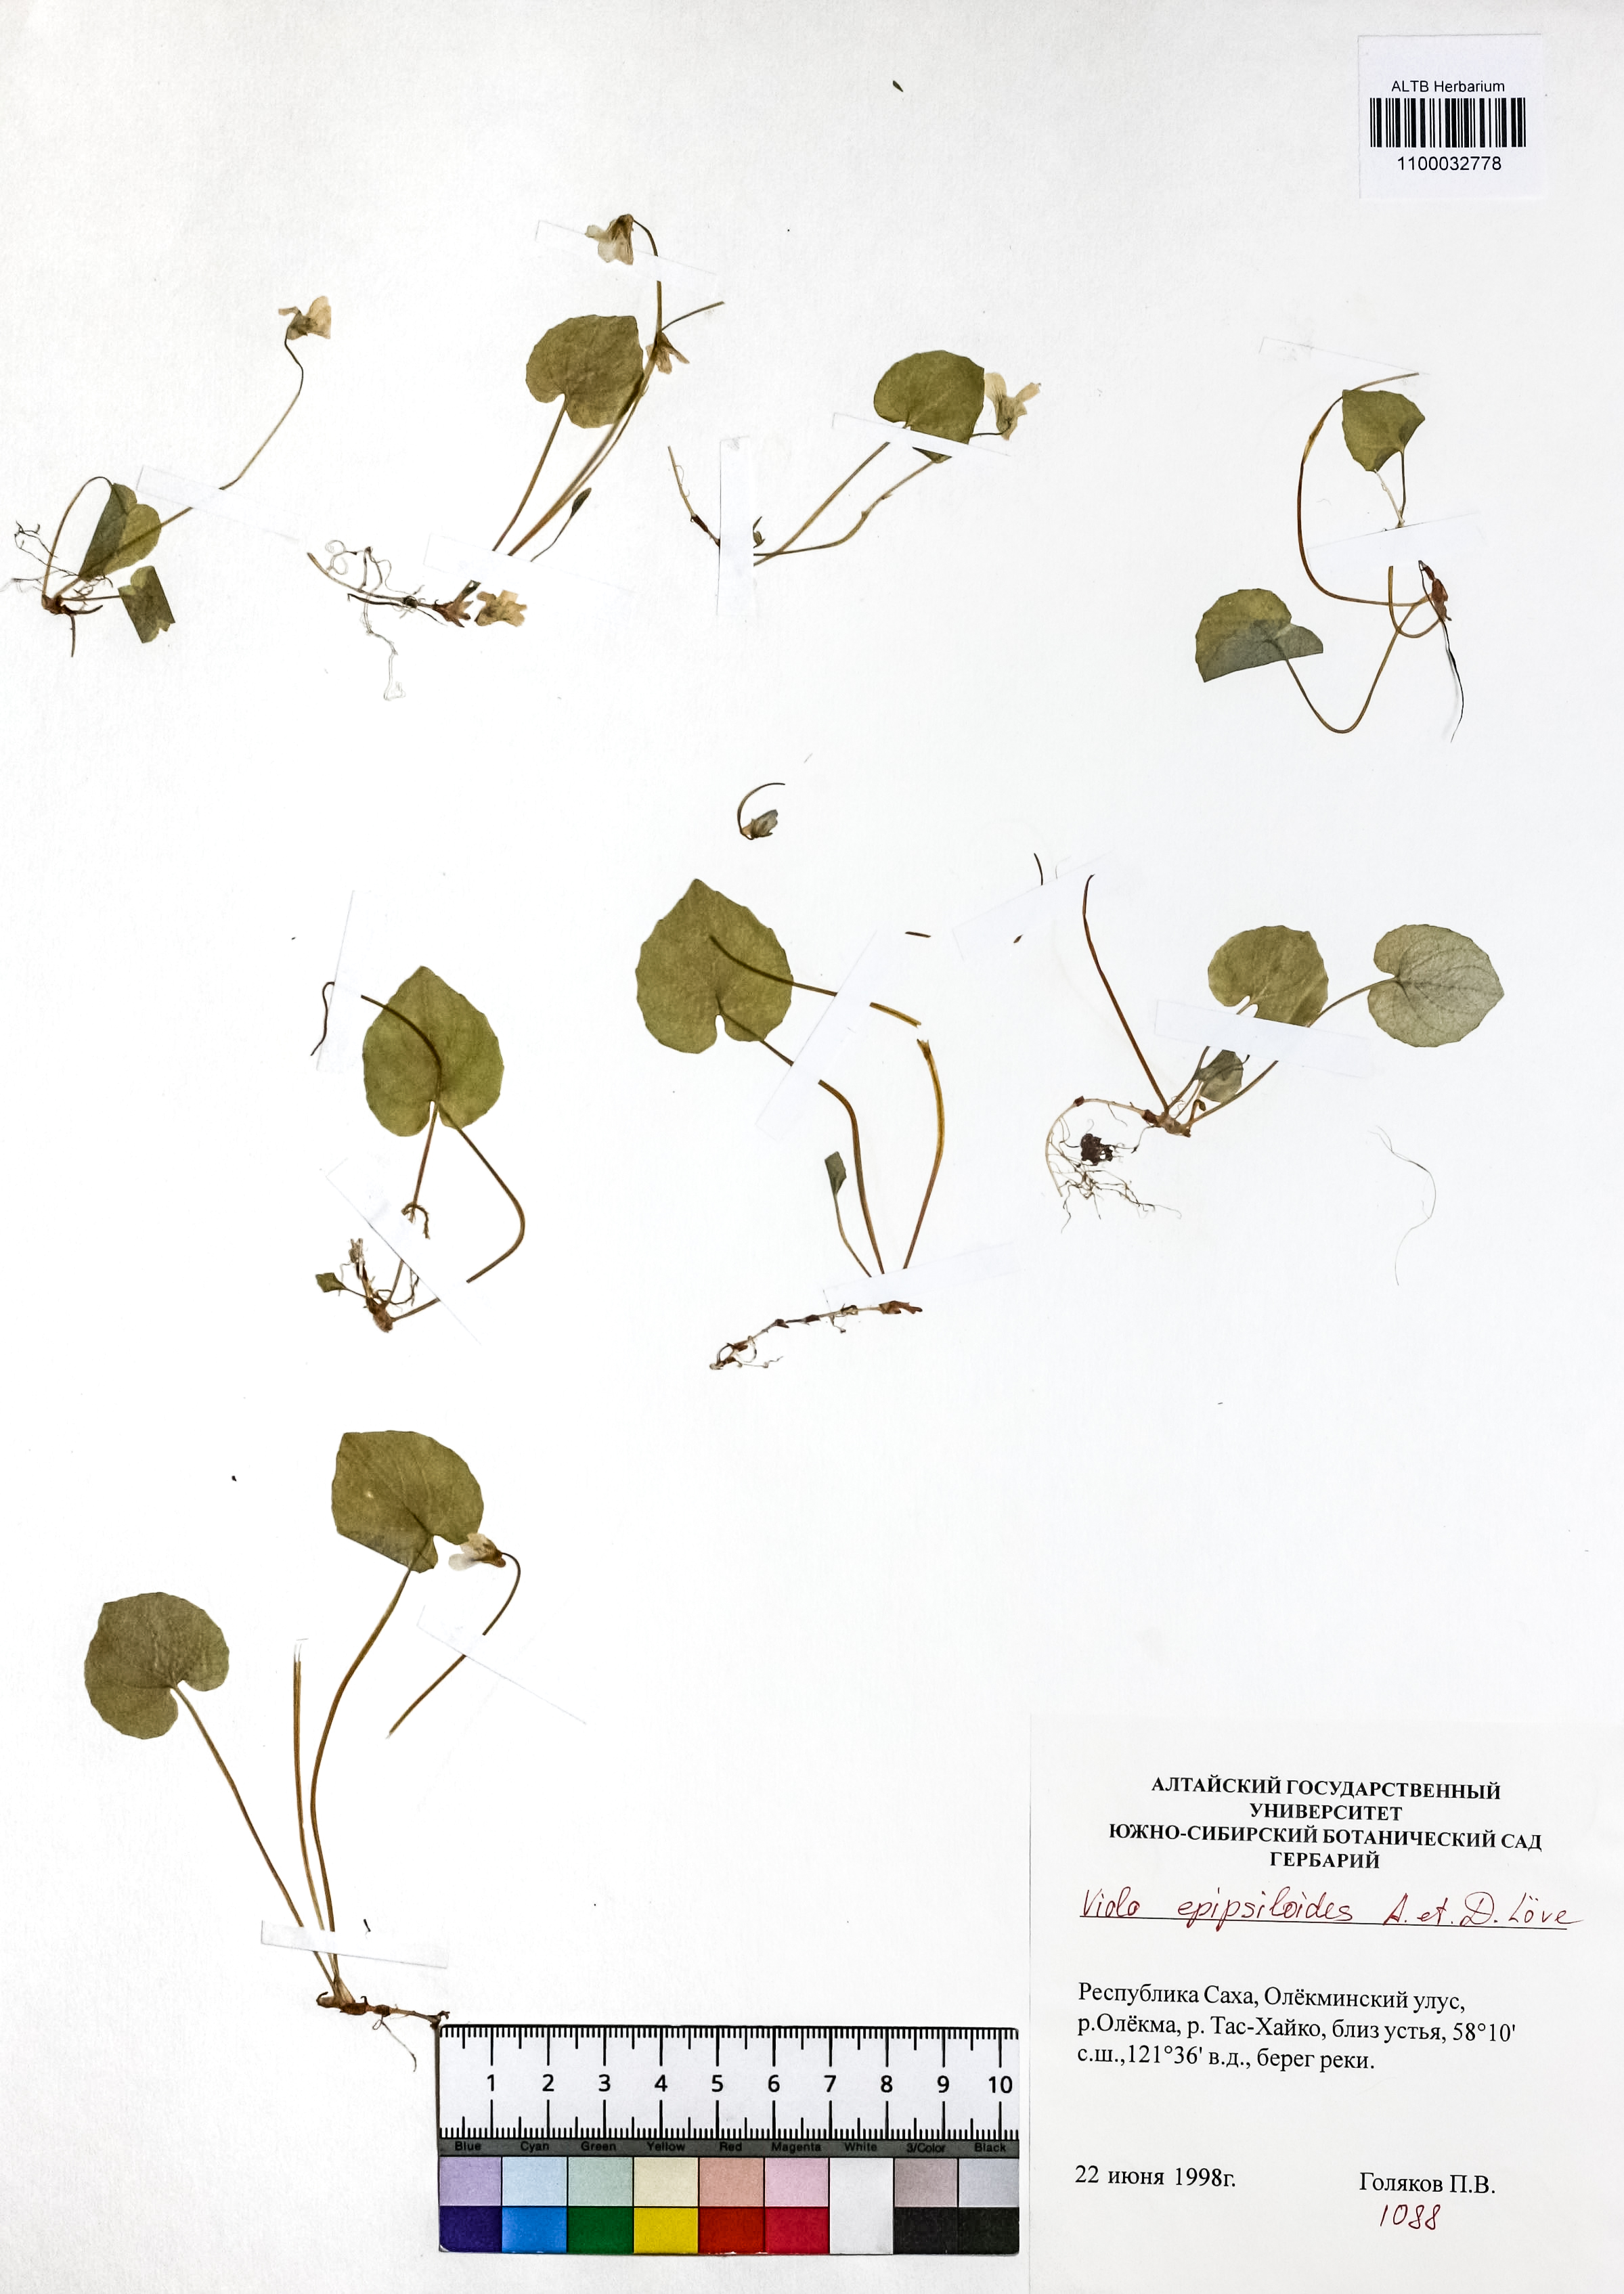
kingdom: Plantae
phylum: Tracheophyta
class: Magnoliopsida
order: Malpighiales
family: Violaceae
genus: Viola
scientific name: Viola epipsila
